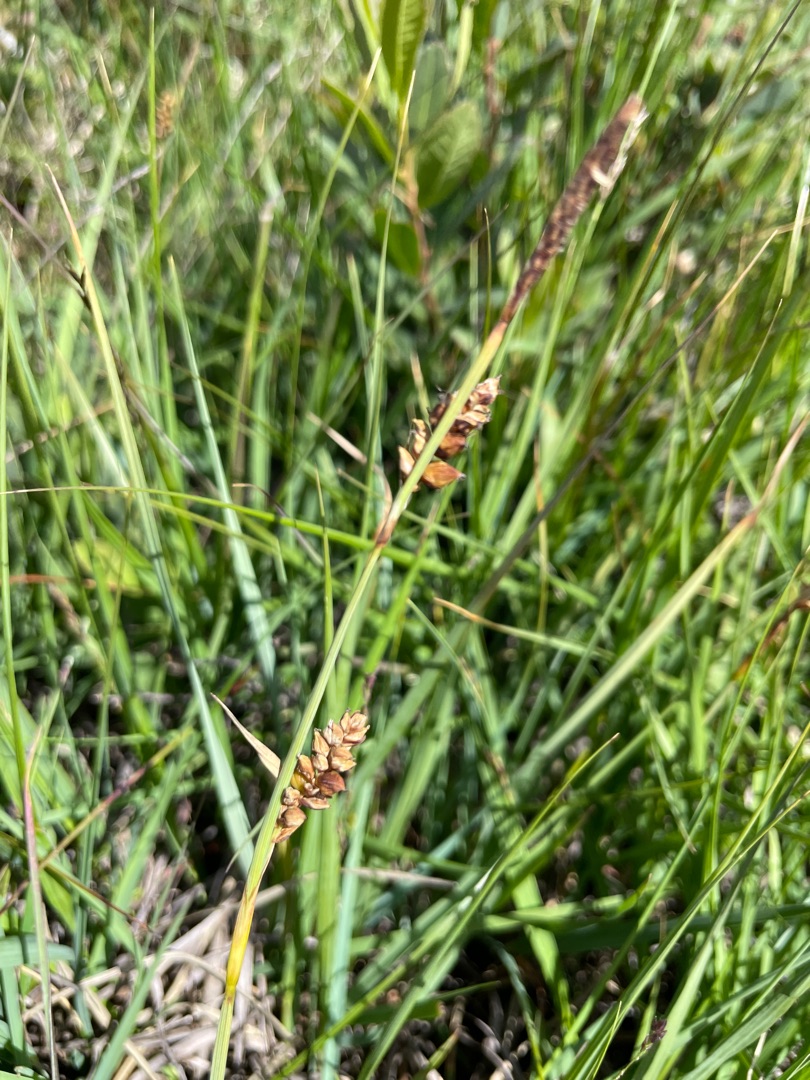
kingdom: Plantae
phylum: Tracheophyta
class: Liliopsida
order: Poales
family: Cyperaceae
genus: Carex
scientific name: Carex panicea
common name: Hirse-star
